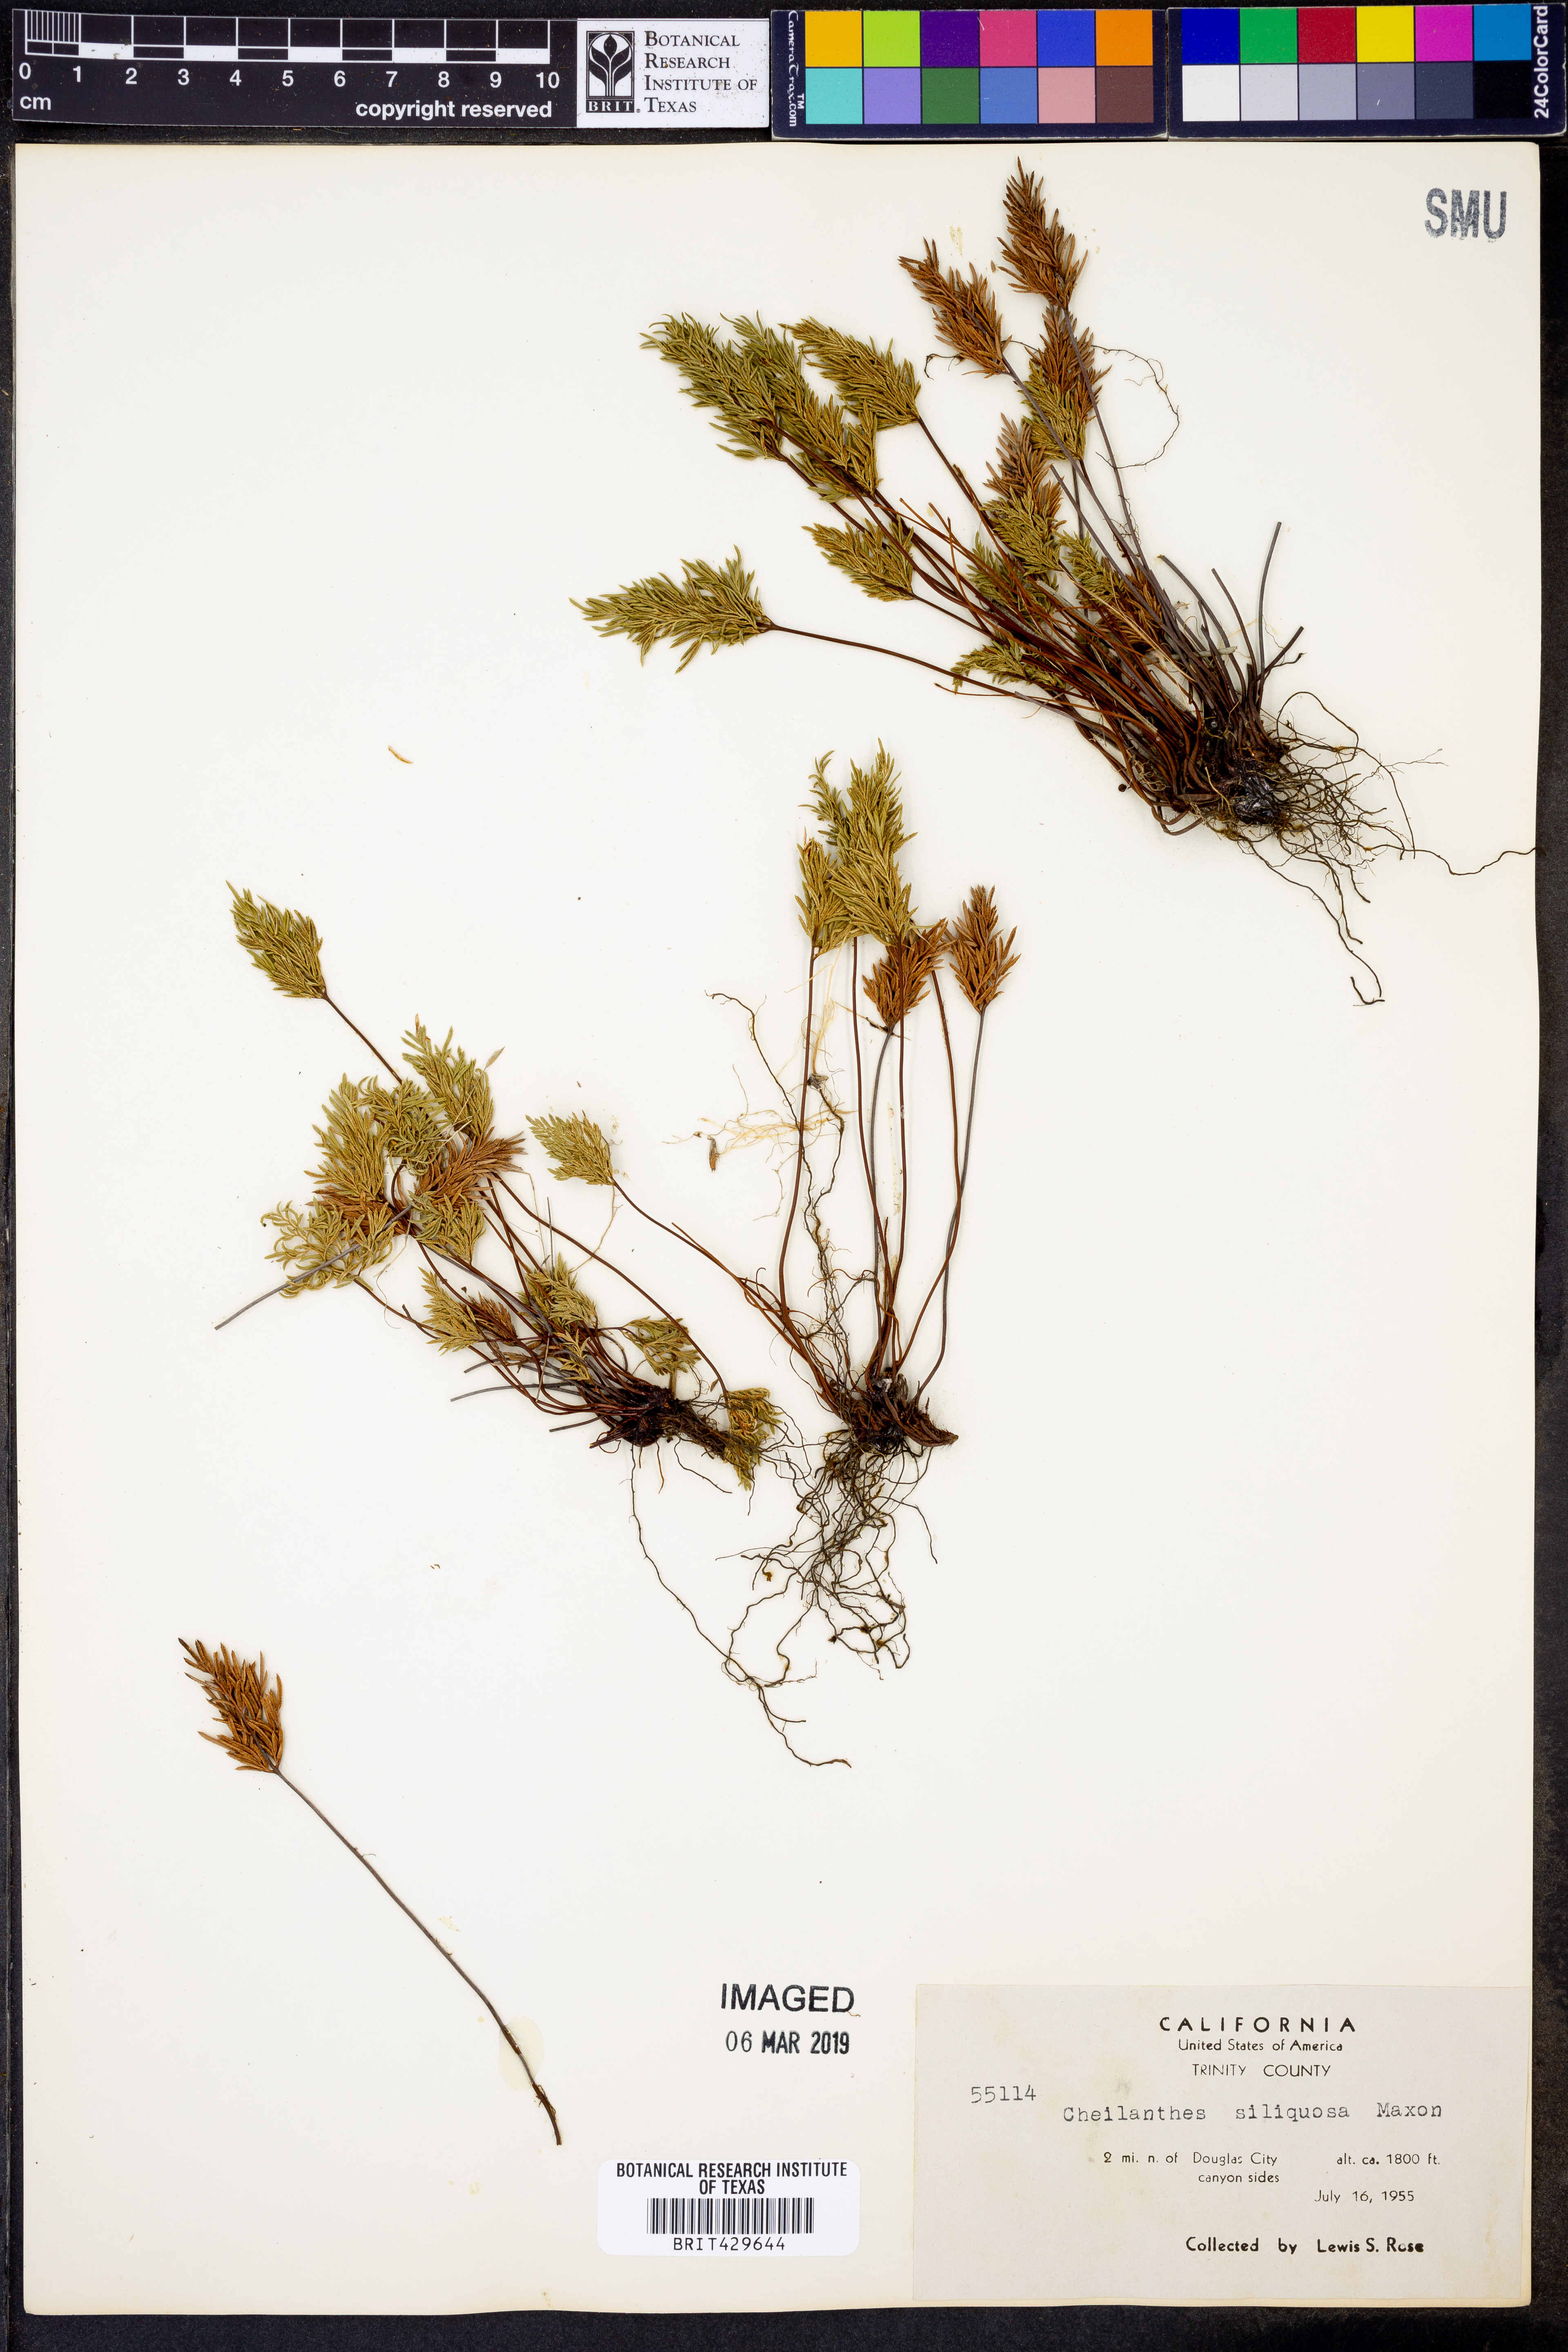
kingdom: Plantae
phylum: Tracheophyta
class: Polypodiopsida
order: Polypodiales
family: Pteridaceae
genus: Aspidotis
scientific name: Aspidotis densa
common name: Indian's dream
